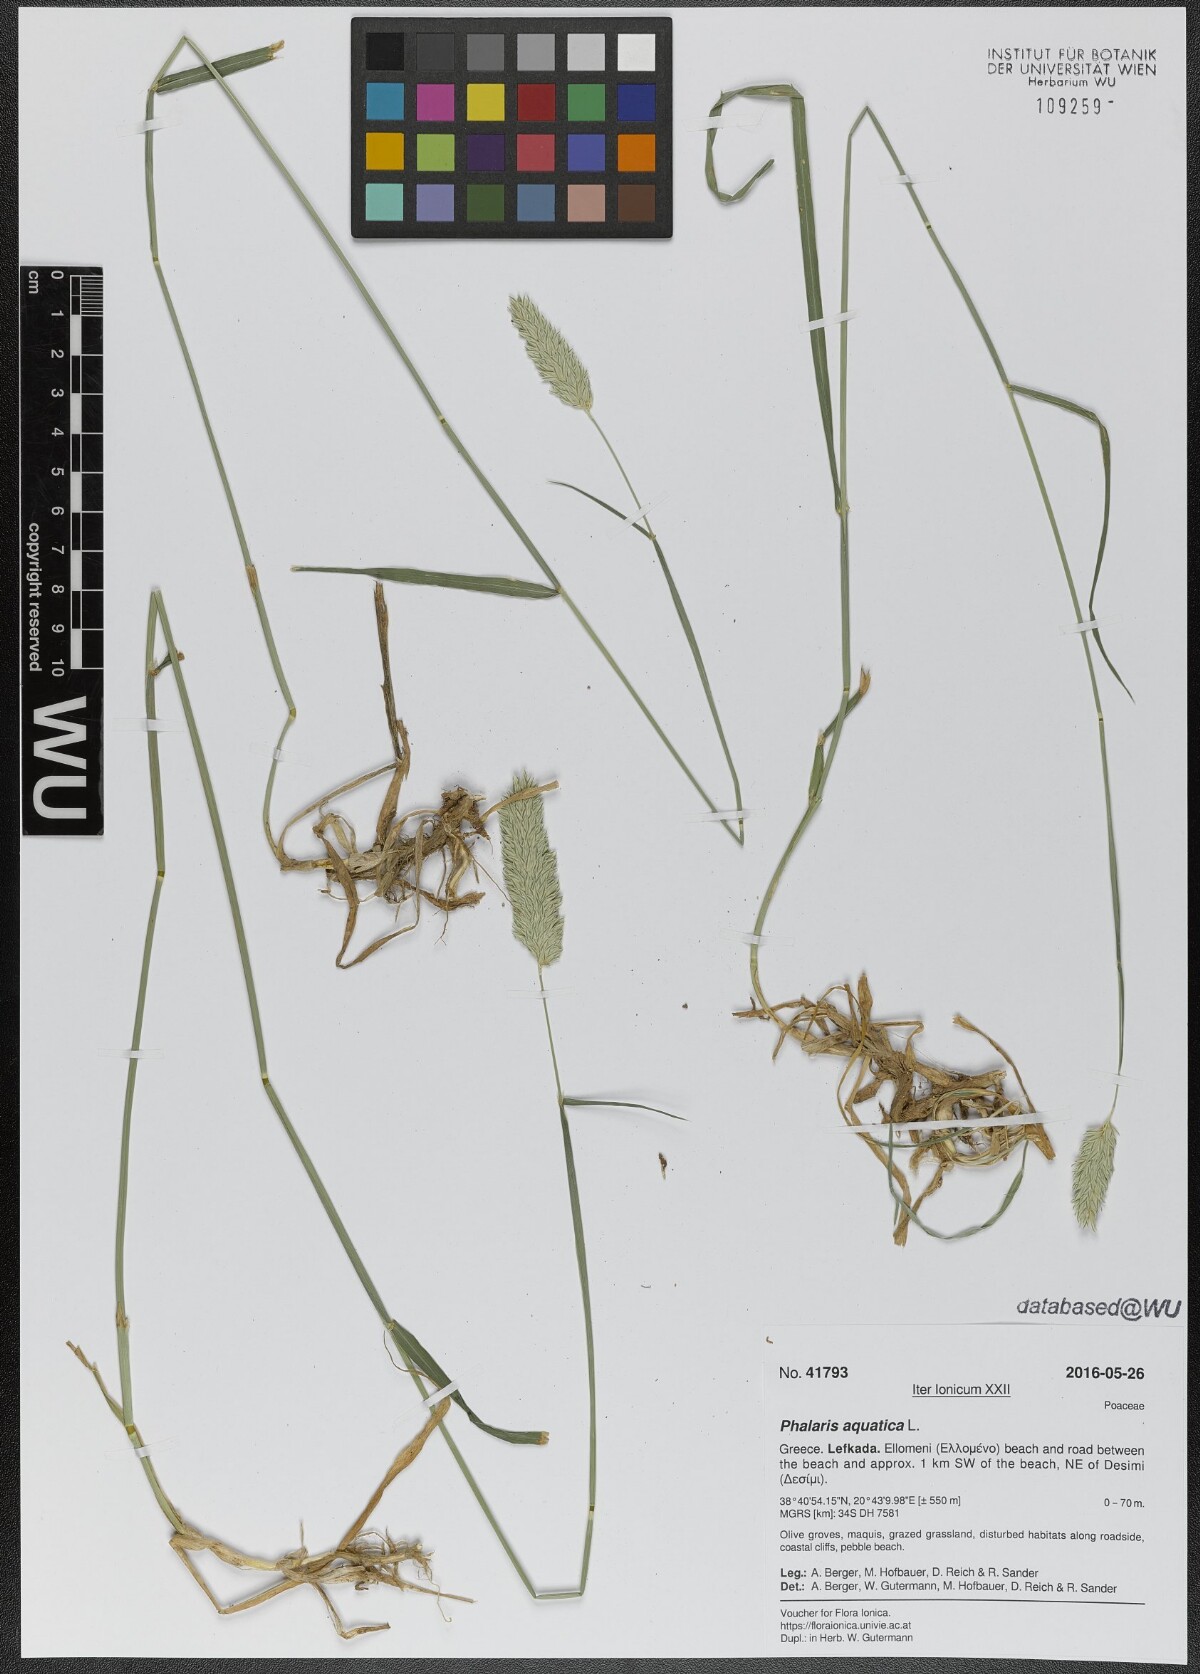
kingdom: Plantae
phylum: Tracheophyta
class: Liliopsida
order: Poales
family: Poaceae
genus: Phalaris
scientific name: Phalaris aquatica
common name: Bulbous canary-grass
